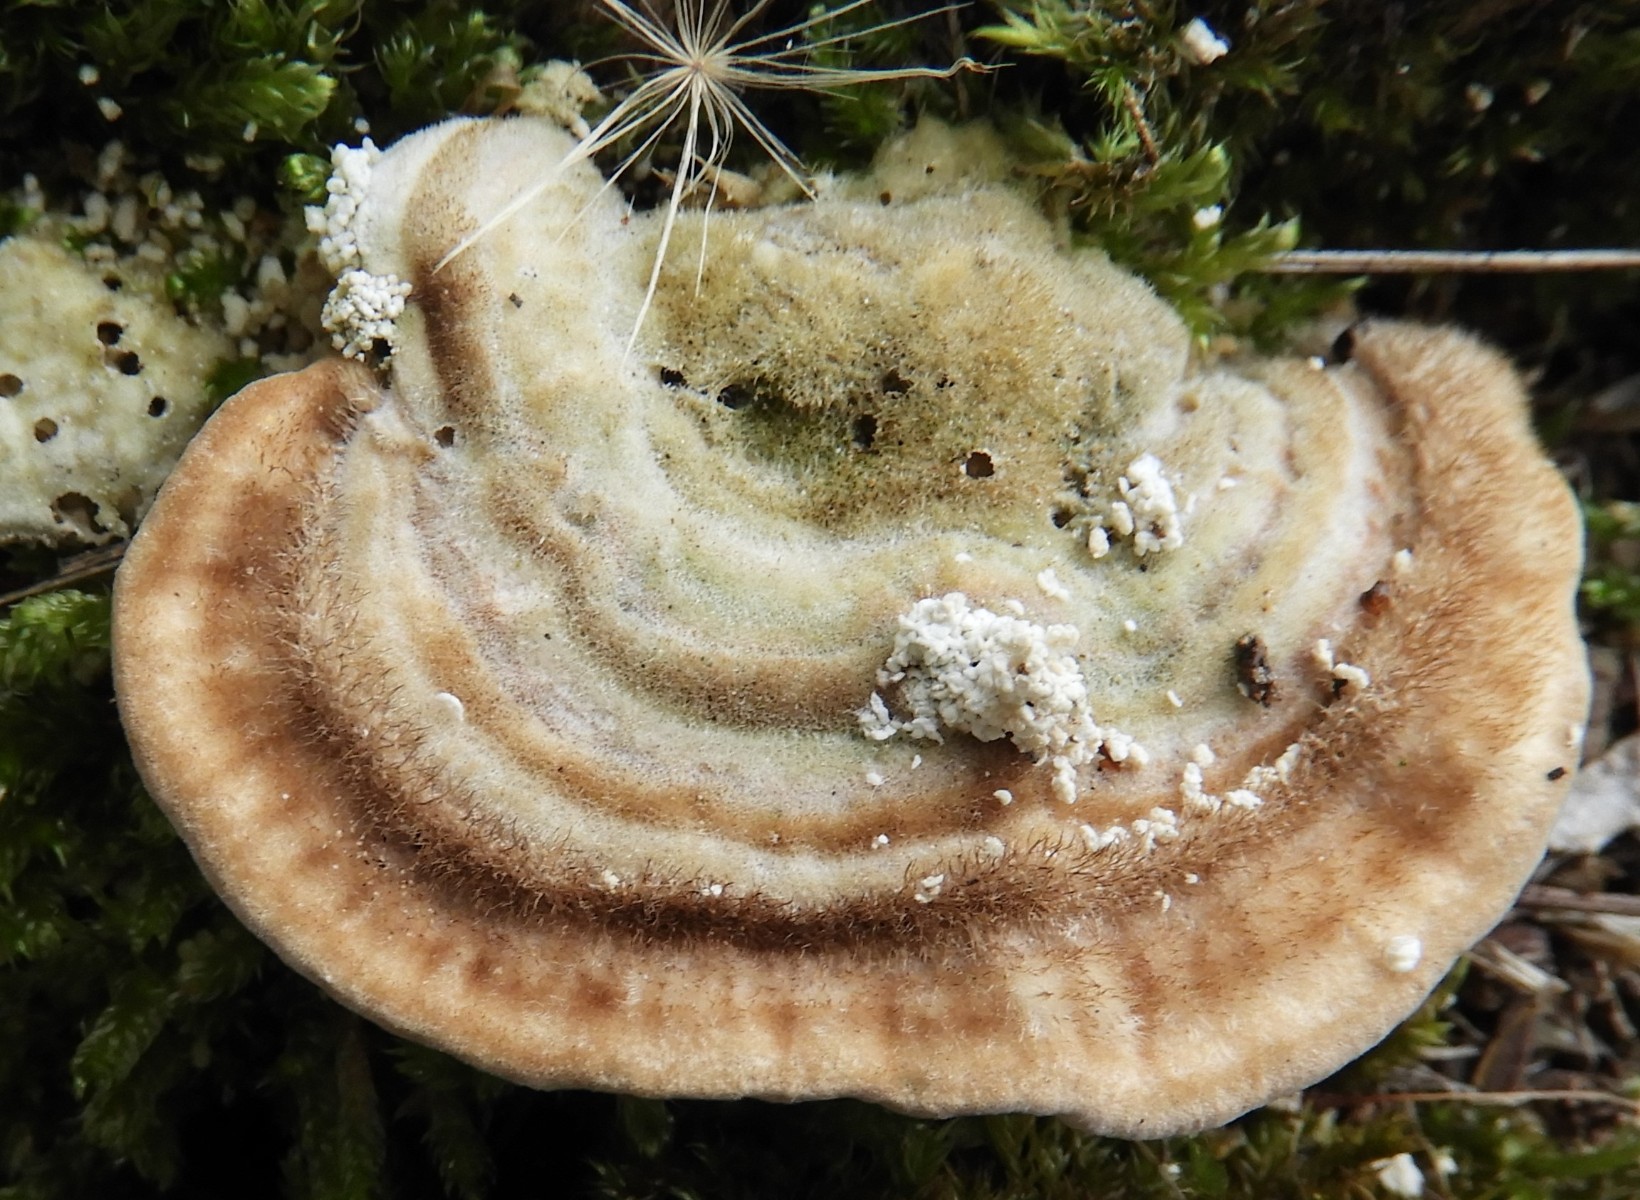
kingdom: Fungi
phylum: Basidiomycota
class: Agaricomycetes
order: Polyporales
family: Polyporaceae
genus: Lenzites
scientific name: Lenzites betulinus
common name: birke-læderporesvamp
